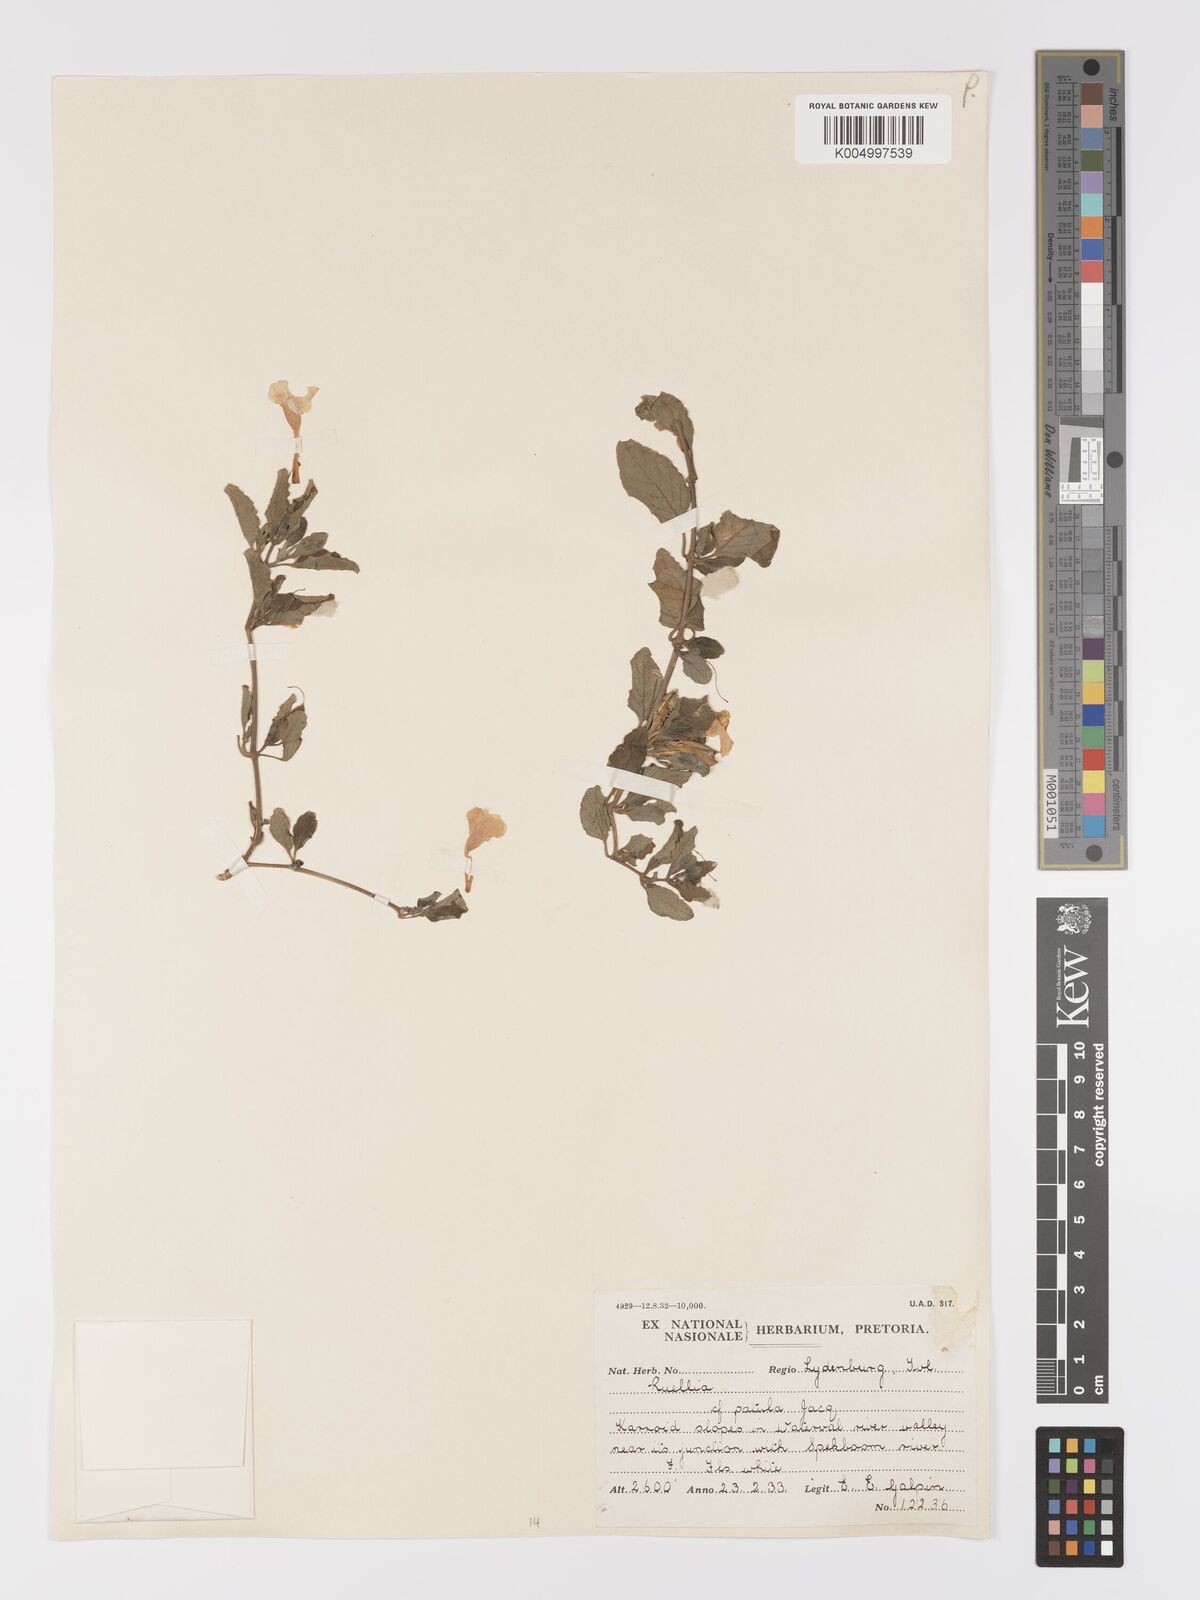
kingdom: Plantae
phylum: Tracheophyta
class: Magnoliopsida
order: Lamiales
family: Acanthaceae
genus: Ruellia
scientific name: Ruellia patula
